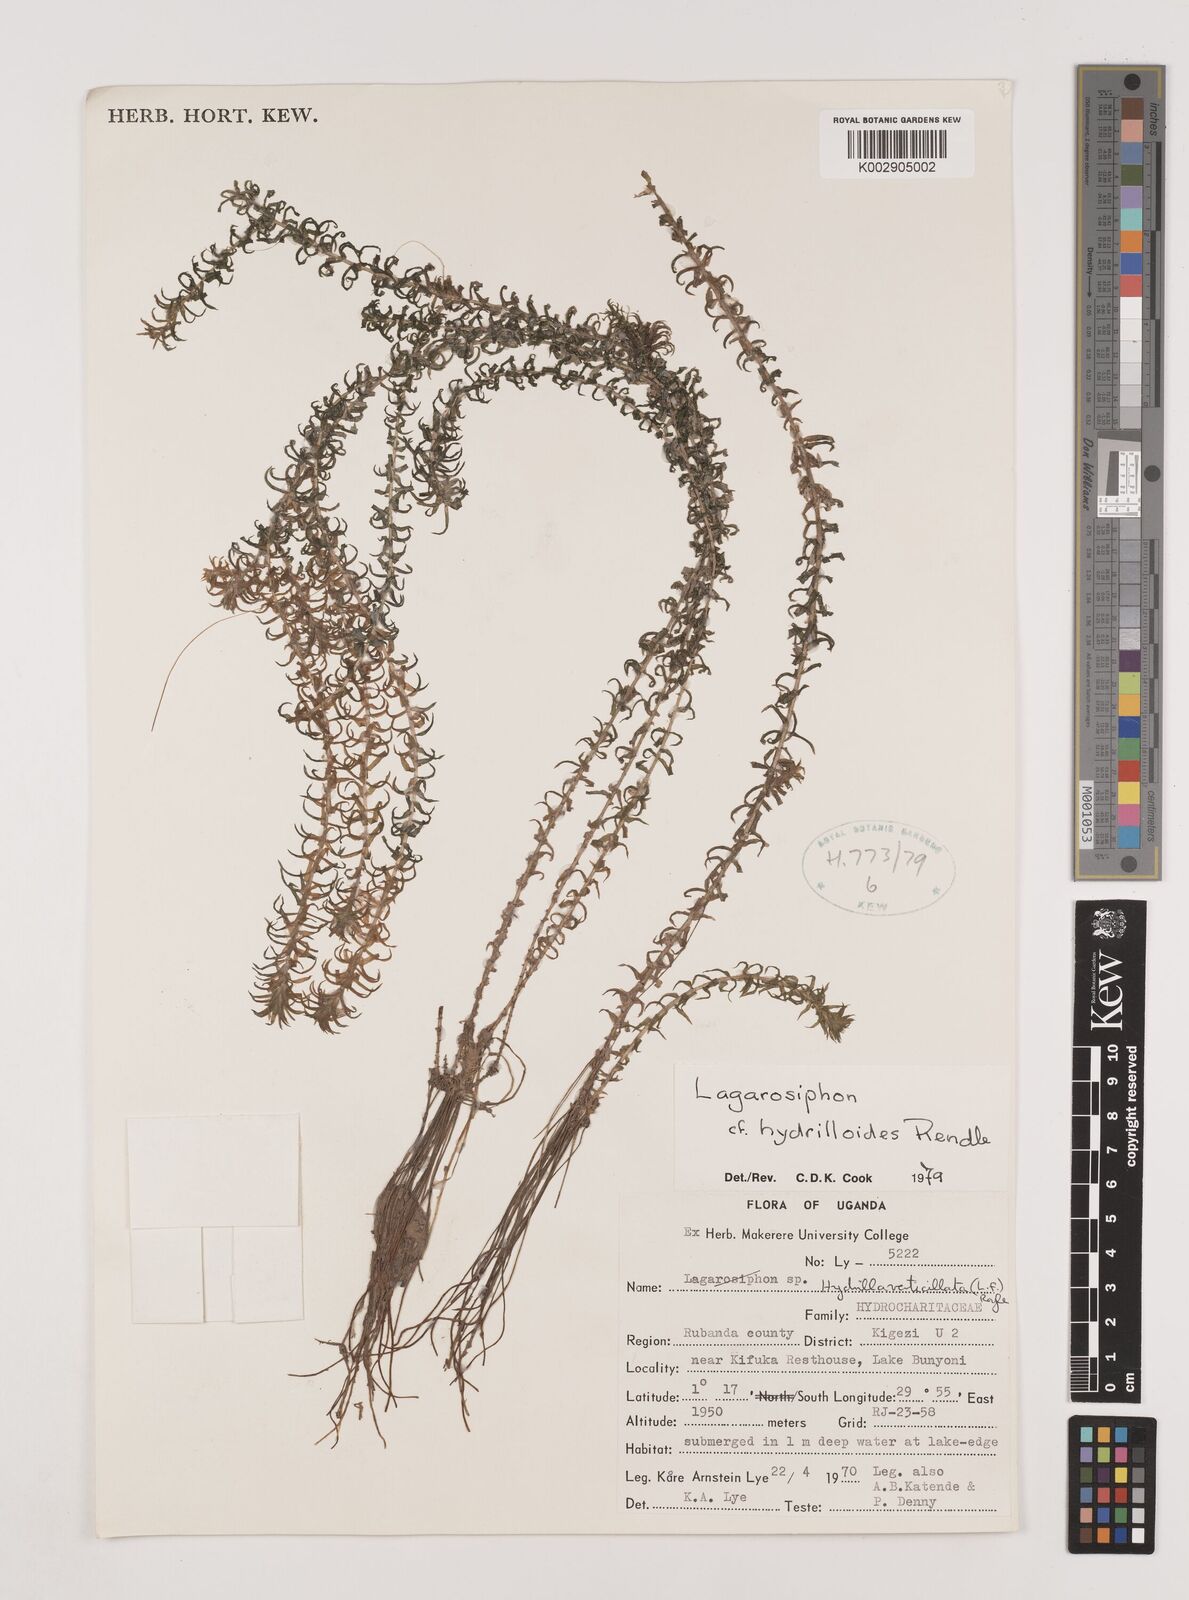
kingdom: Plantae
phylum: Tracheophyta
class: Liliopsida
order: Alismatales
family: Hydrocharitaceae
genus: Lagarosiphon
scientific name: Lagarosiphon hydrilloides
